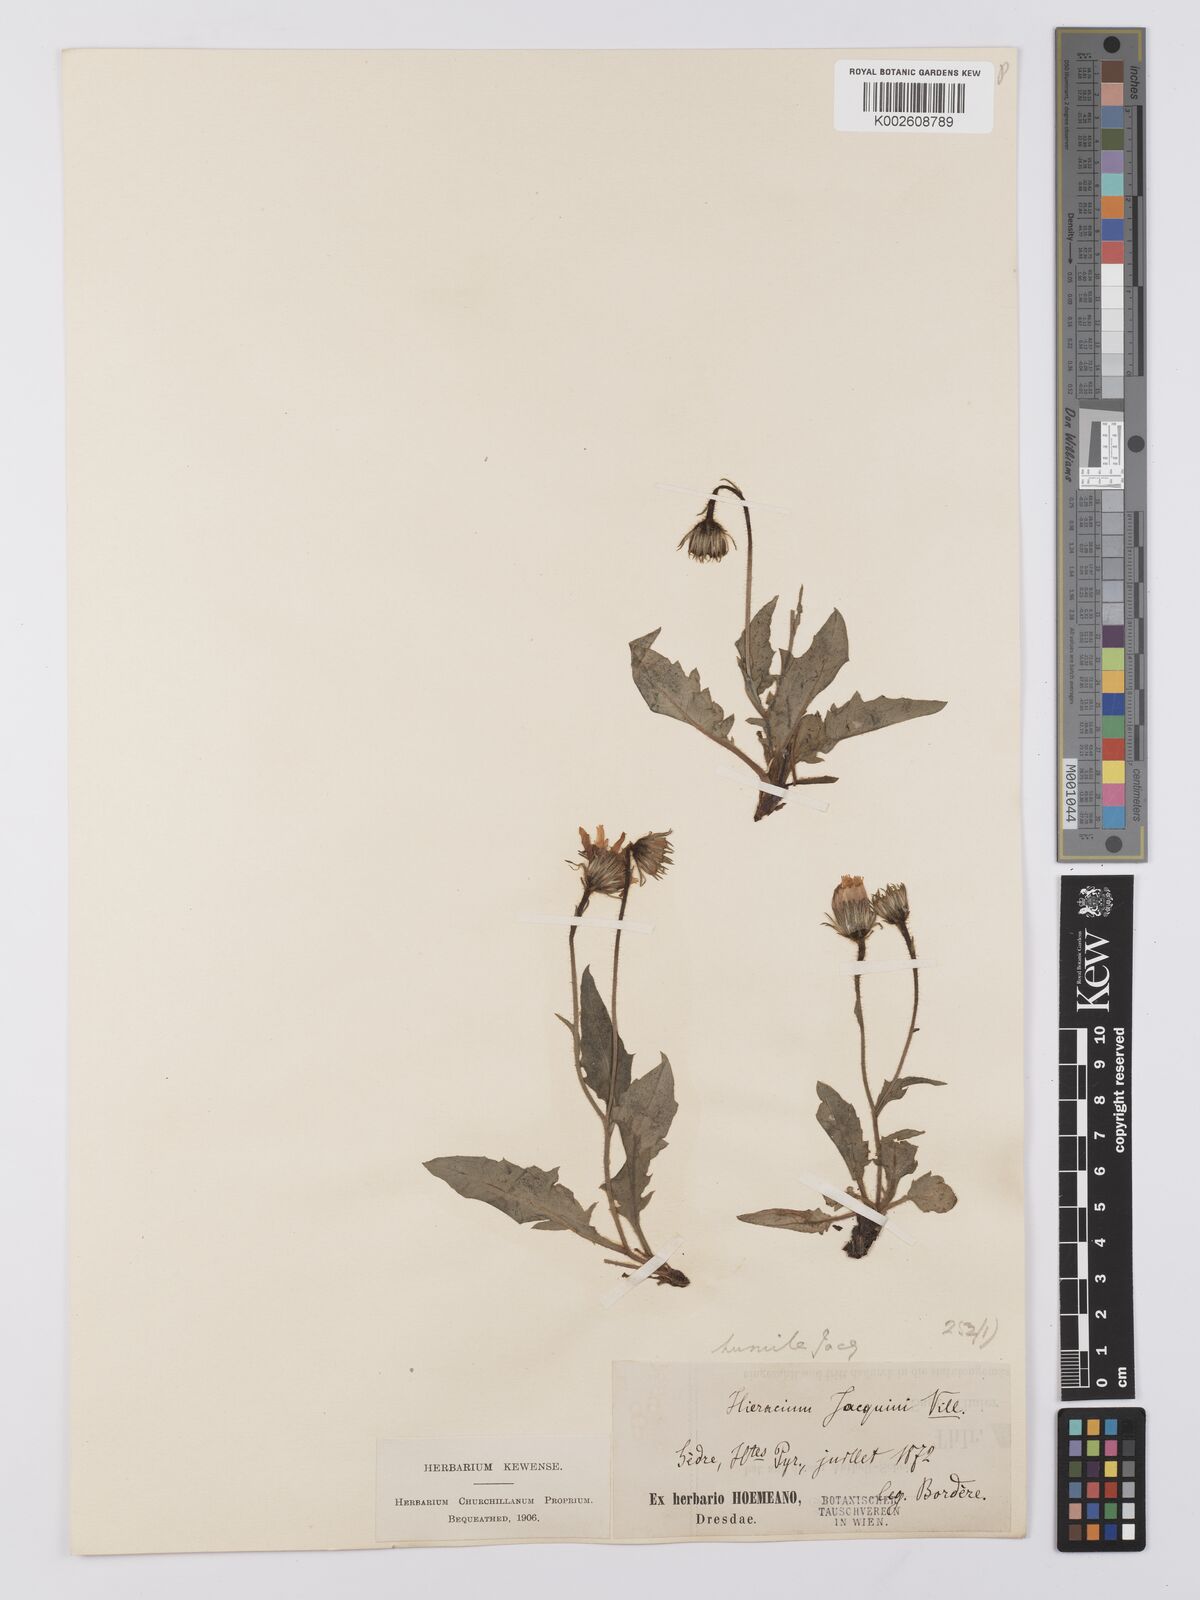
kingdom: Plantae
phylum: Tracheophyta
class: Magnoliopsida
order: Asterales
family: Asteraceae
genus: Hieracium
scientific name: Hieracium humile
